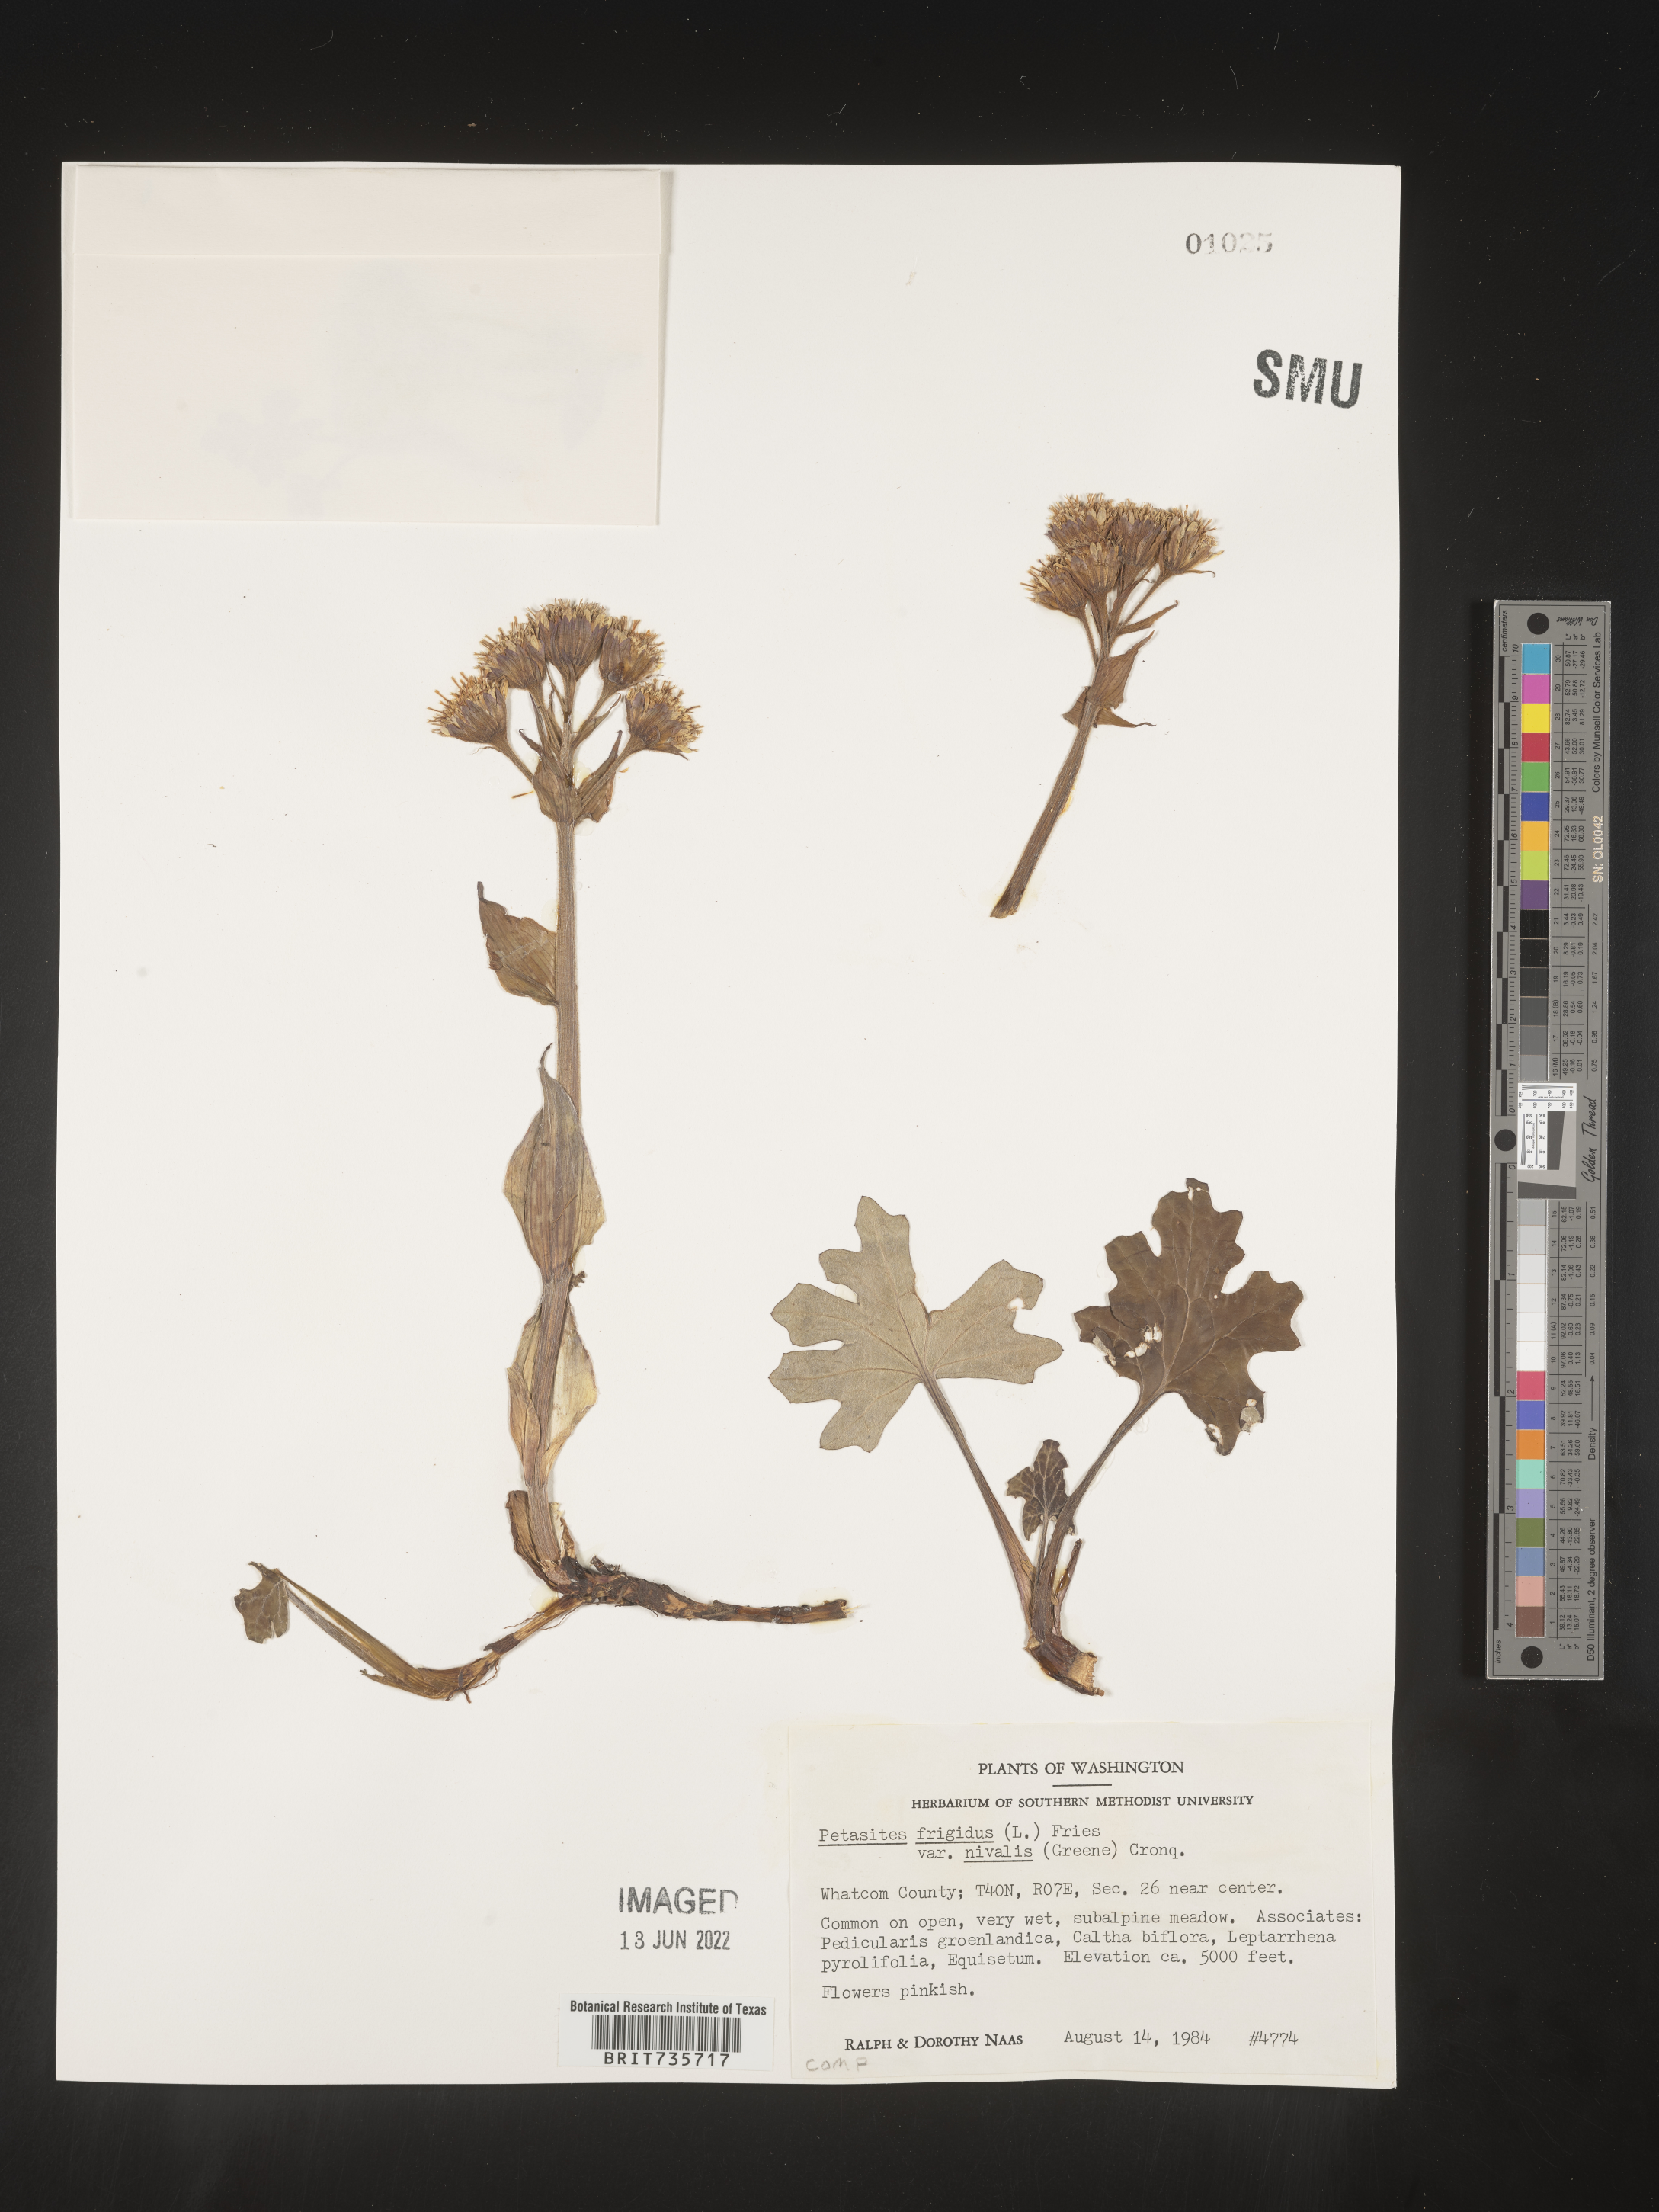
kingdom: Plantae
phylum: Tracheophyta
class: Magnoliopsida
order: Asterales
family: Asteraceae
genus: Petasites
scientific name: Petasites frigidus
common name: Arctic butterbur
